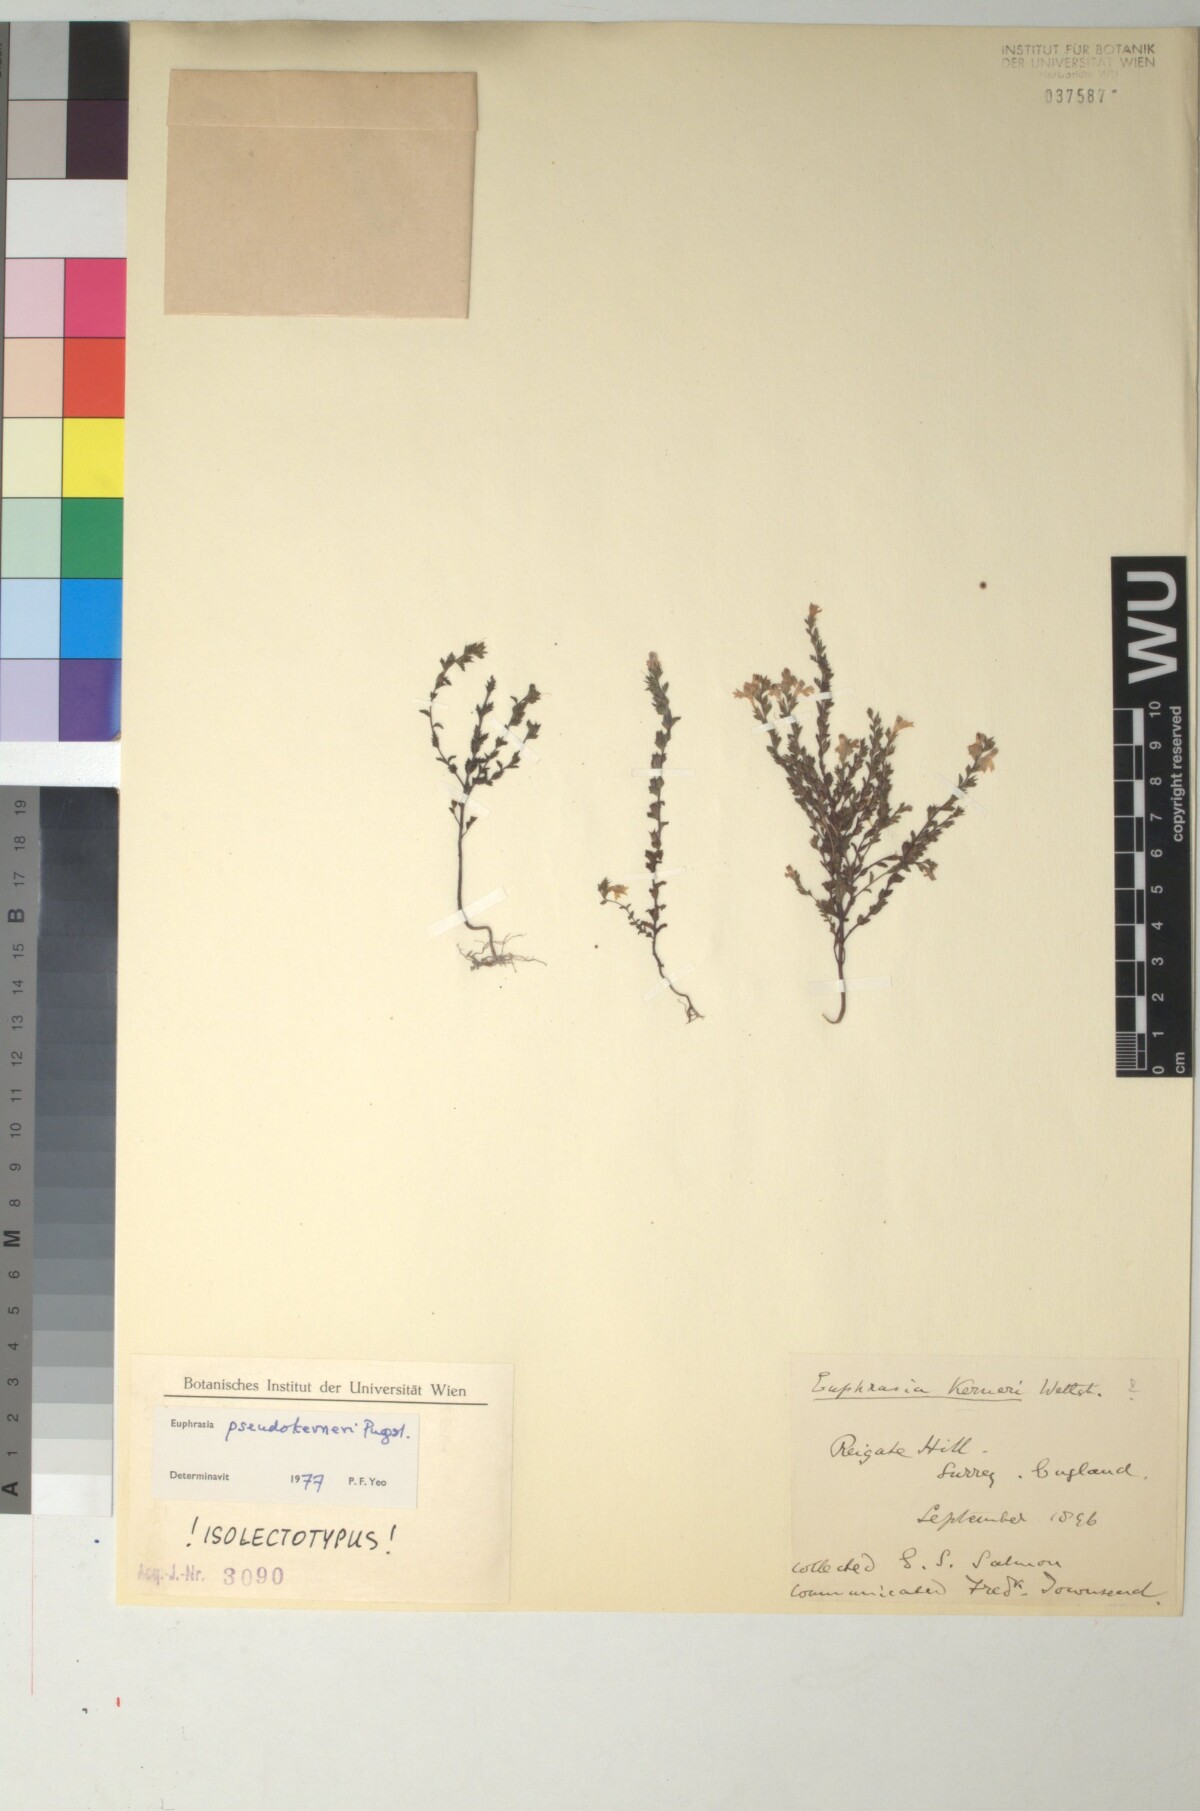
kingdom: Plantae
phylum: Tracheophyta
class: Magnoliopsida
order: Lamiales
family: Orobanchaceae
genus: Euphrasia
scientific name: Euphrasia pseudokerneri
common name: Chalk eyebright
